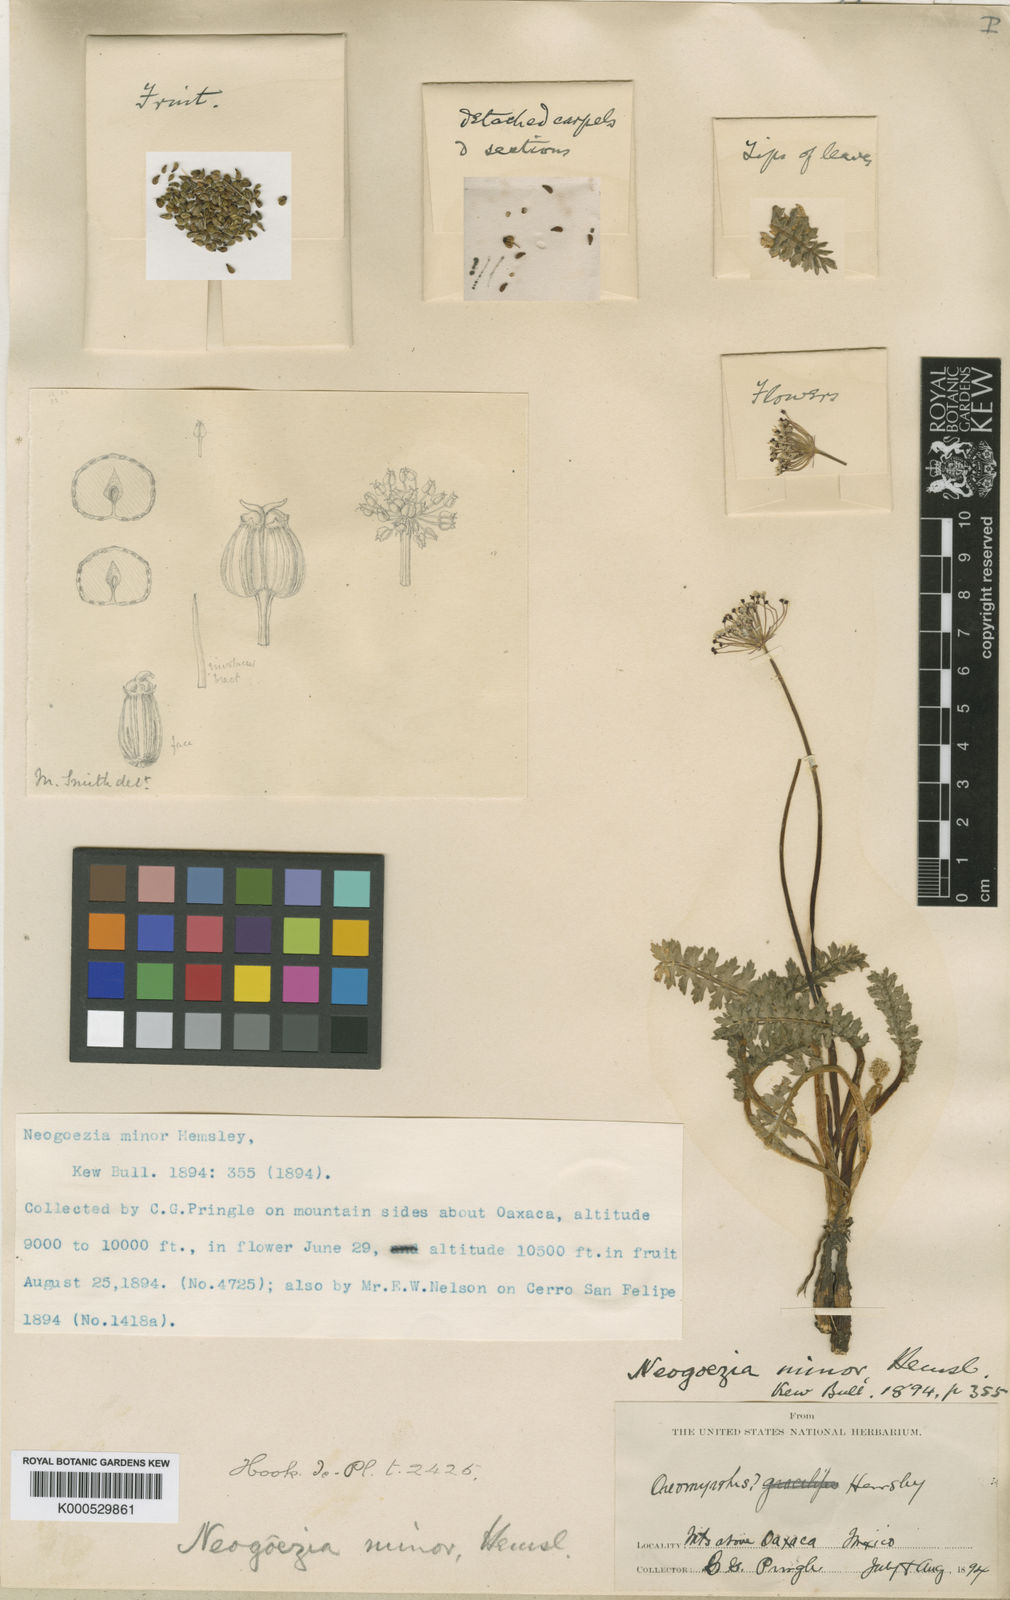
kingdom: Plantae
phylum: Tracheophyta
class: Magnoliopsida
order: Apiales
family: Apiaceae
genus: Neogoezia
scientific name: Neogoezia minor
